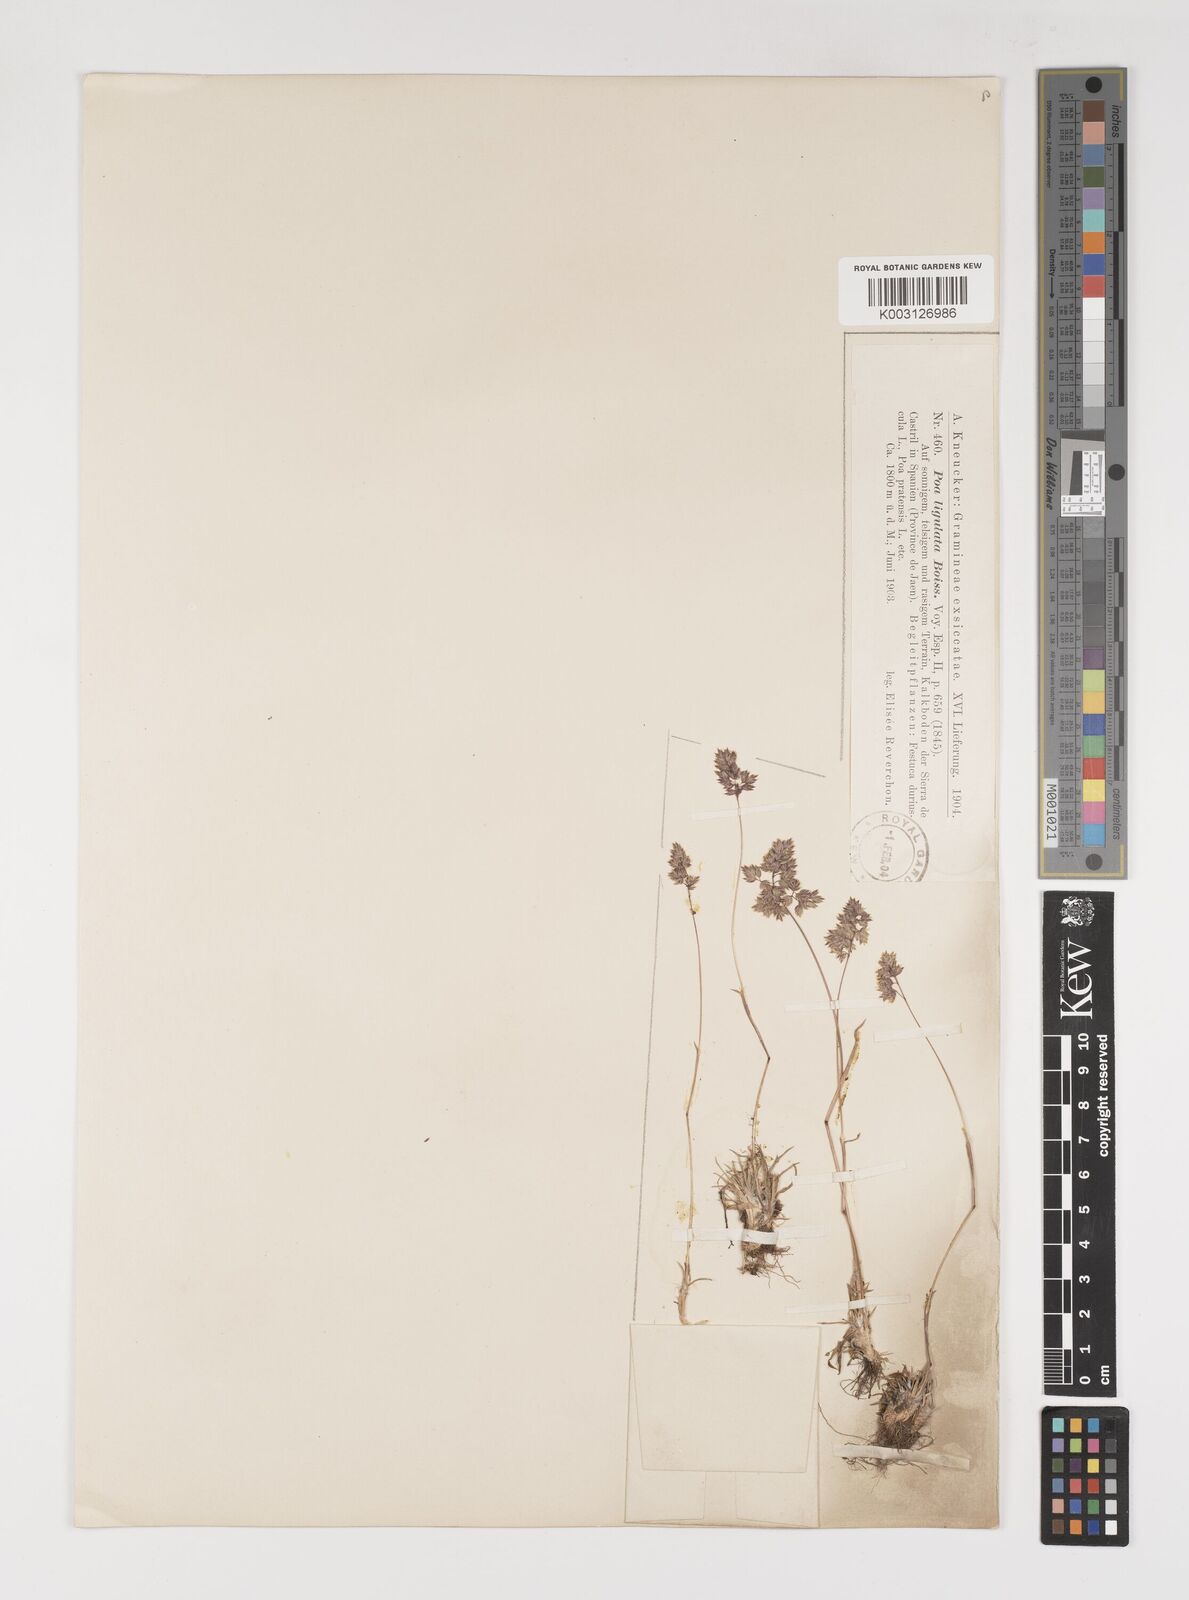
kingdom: Plantae
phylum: Tracheophyta
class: Liliopsida
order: Poales
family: Poaceae
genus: Poa
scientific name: Poa ligulata
